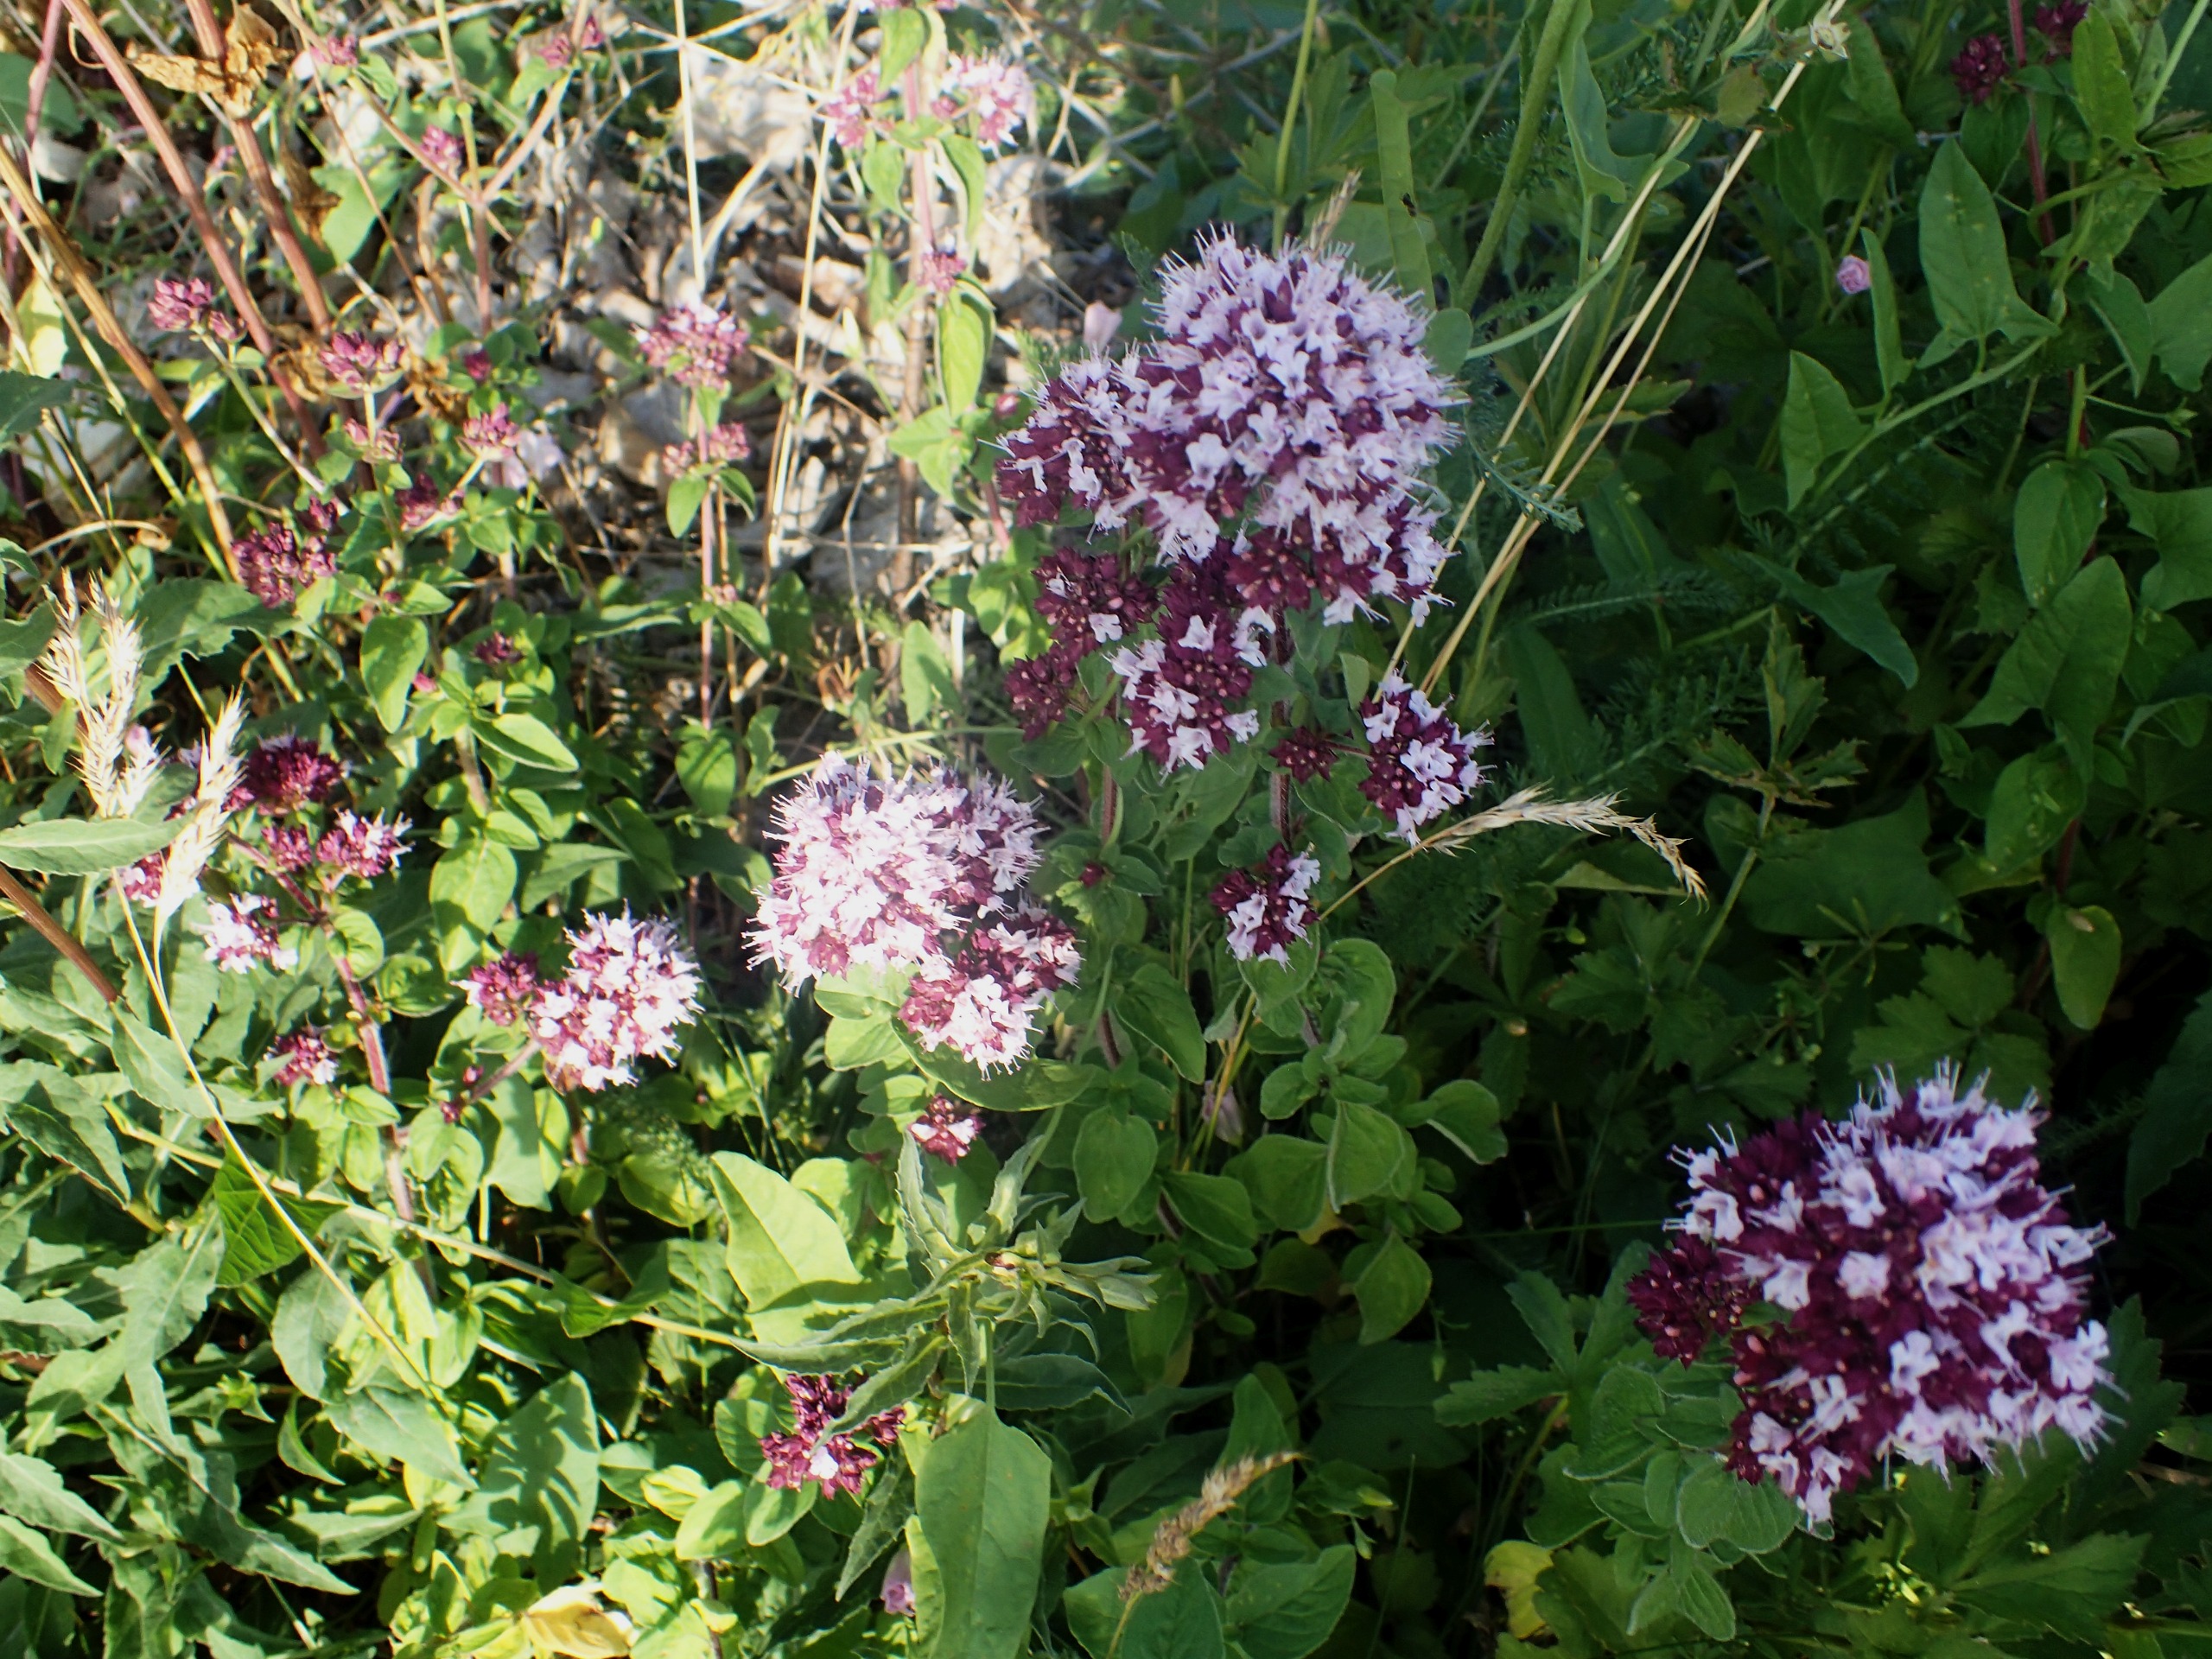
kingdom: Plantae
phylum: Tracheophyta
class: Magnoliopsida
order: Lamiales
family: Lamiaceae
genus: Origanum
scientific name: Origanum vulgare
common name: Merian
